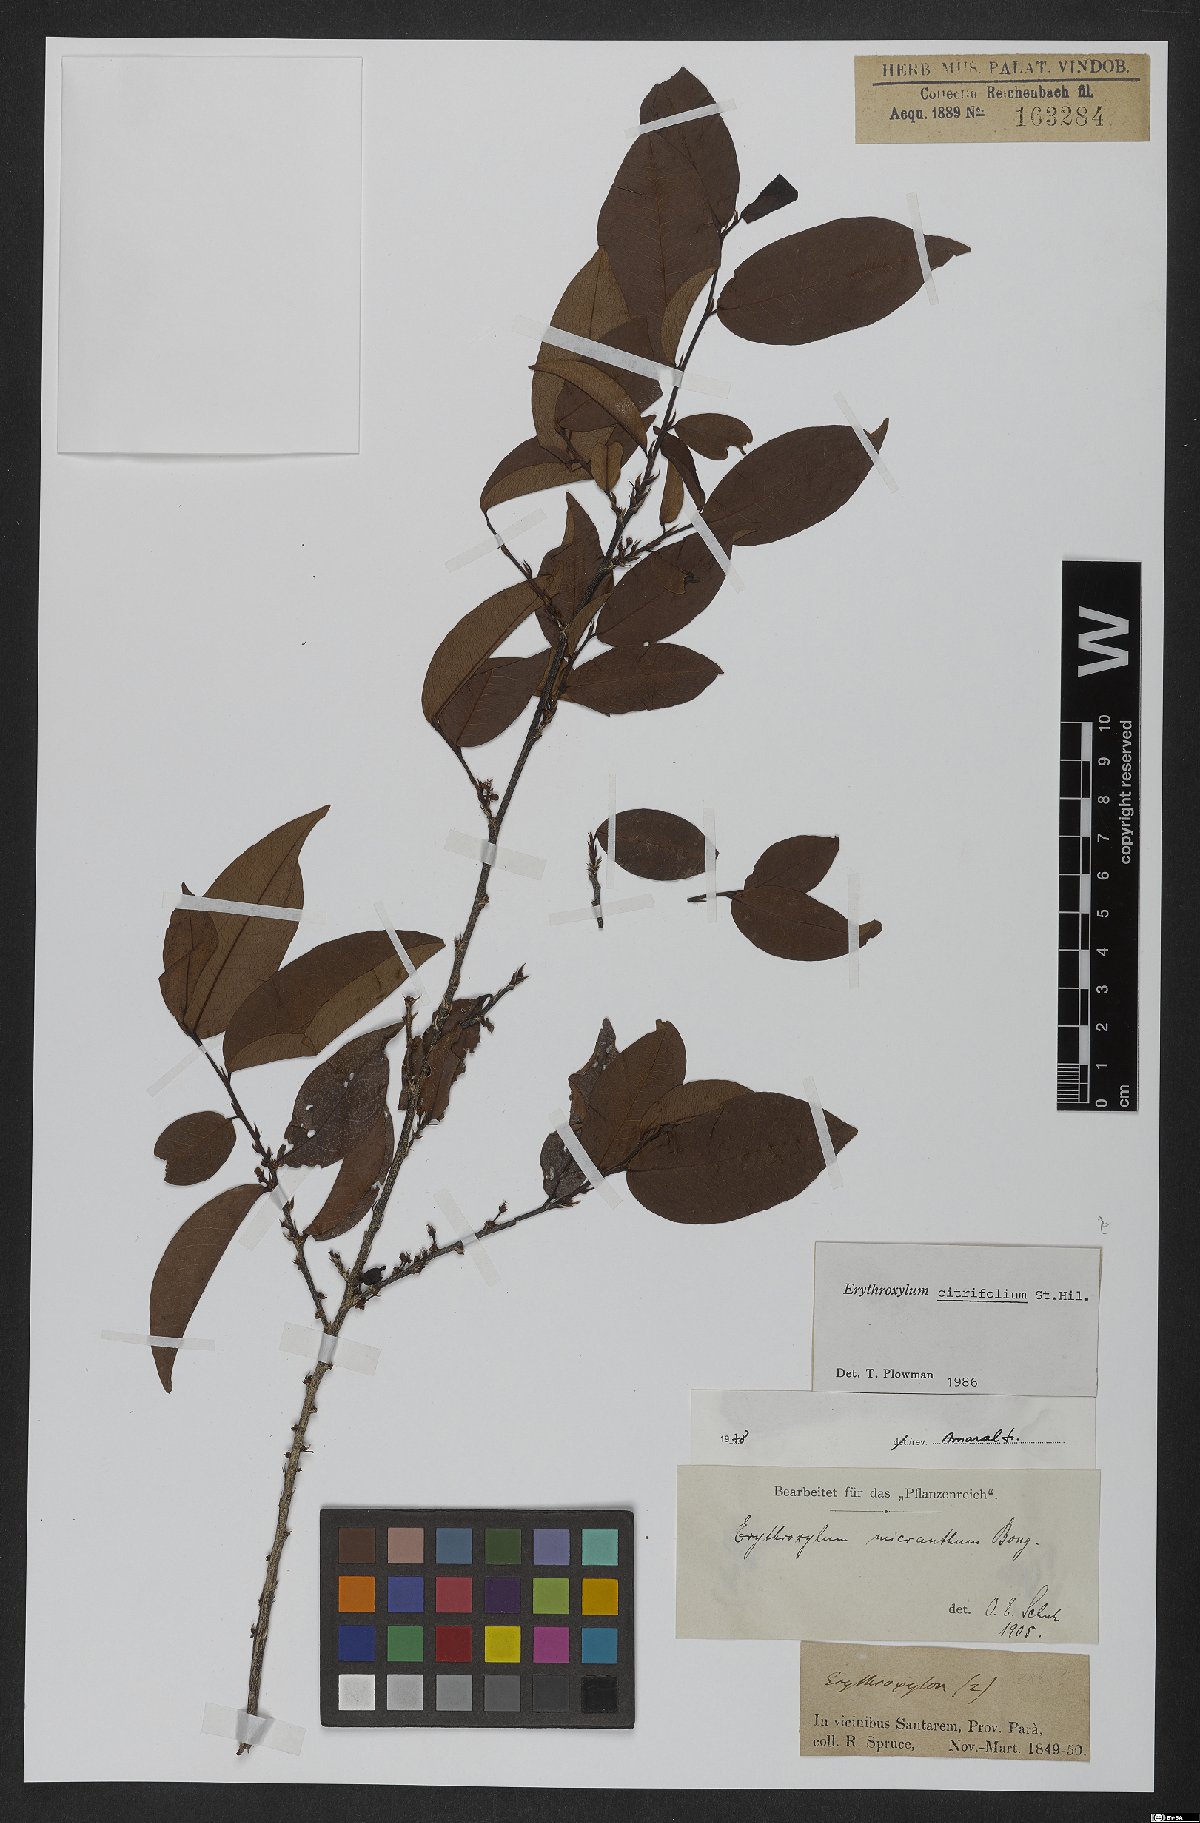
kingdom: Plantae
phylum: Tracheophyta
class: Magnoliopsida
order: Malpighiales
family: Erythroxylaceae
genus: Erythroxylum
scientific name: Erythroxylum citrifolium
